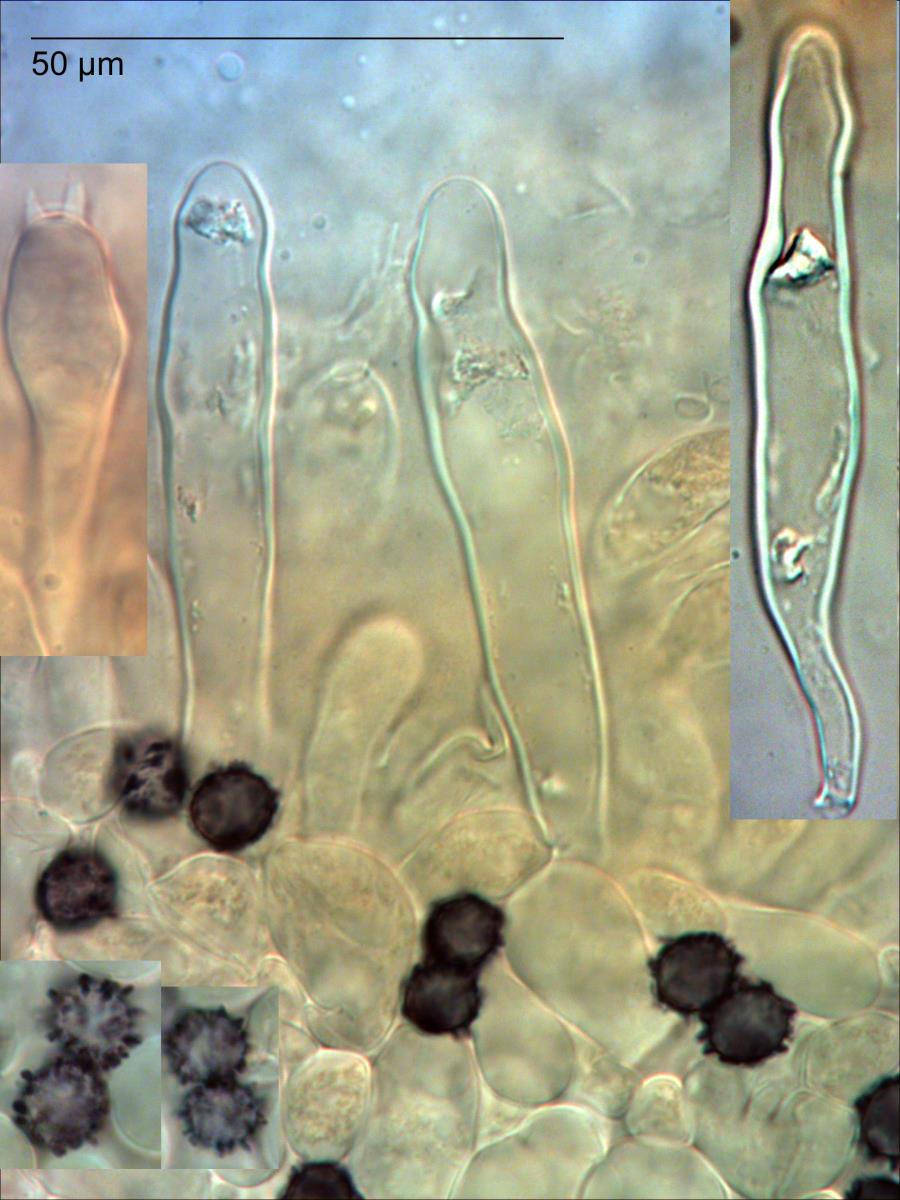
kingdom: Fungi
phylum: Basidiomycota
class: Agaricomycetes
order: Russulales
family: Russulaceae
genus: Russula
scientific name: Russula purpureotincta
